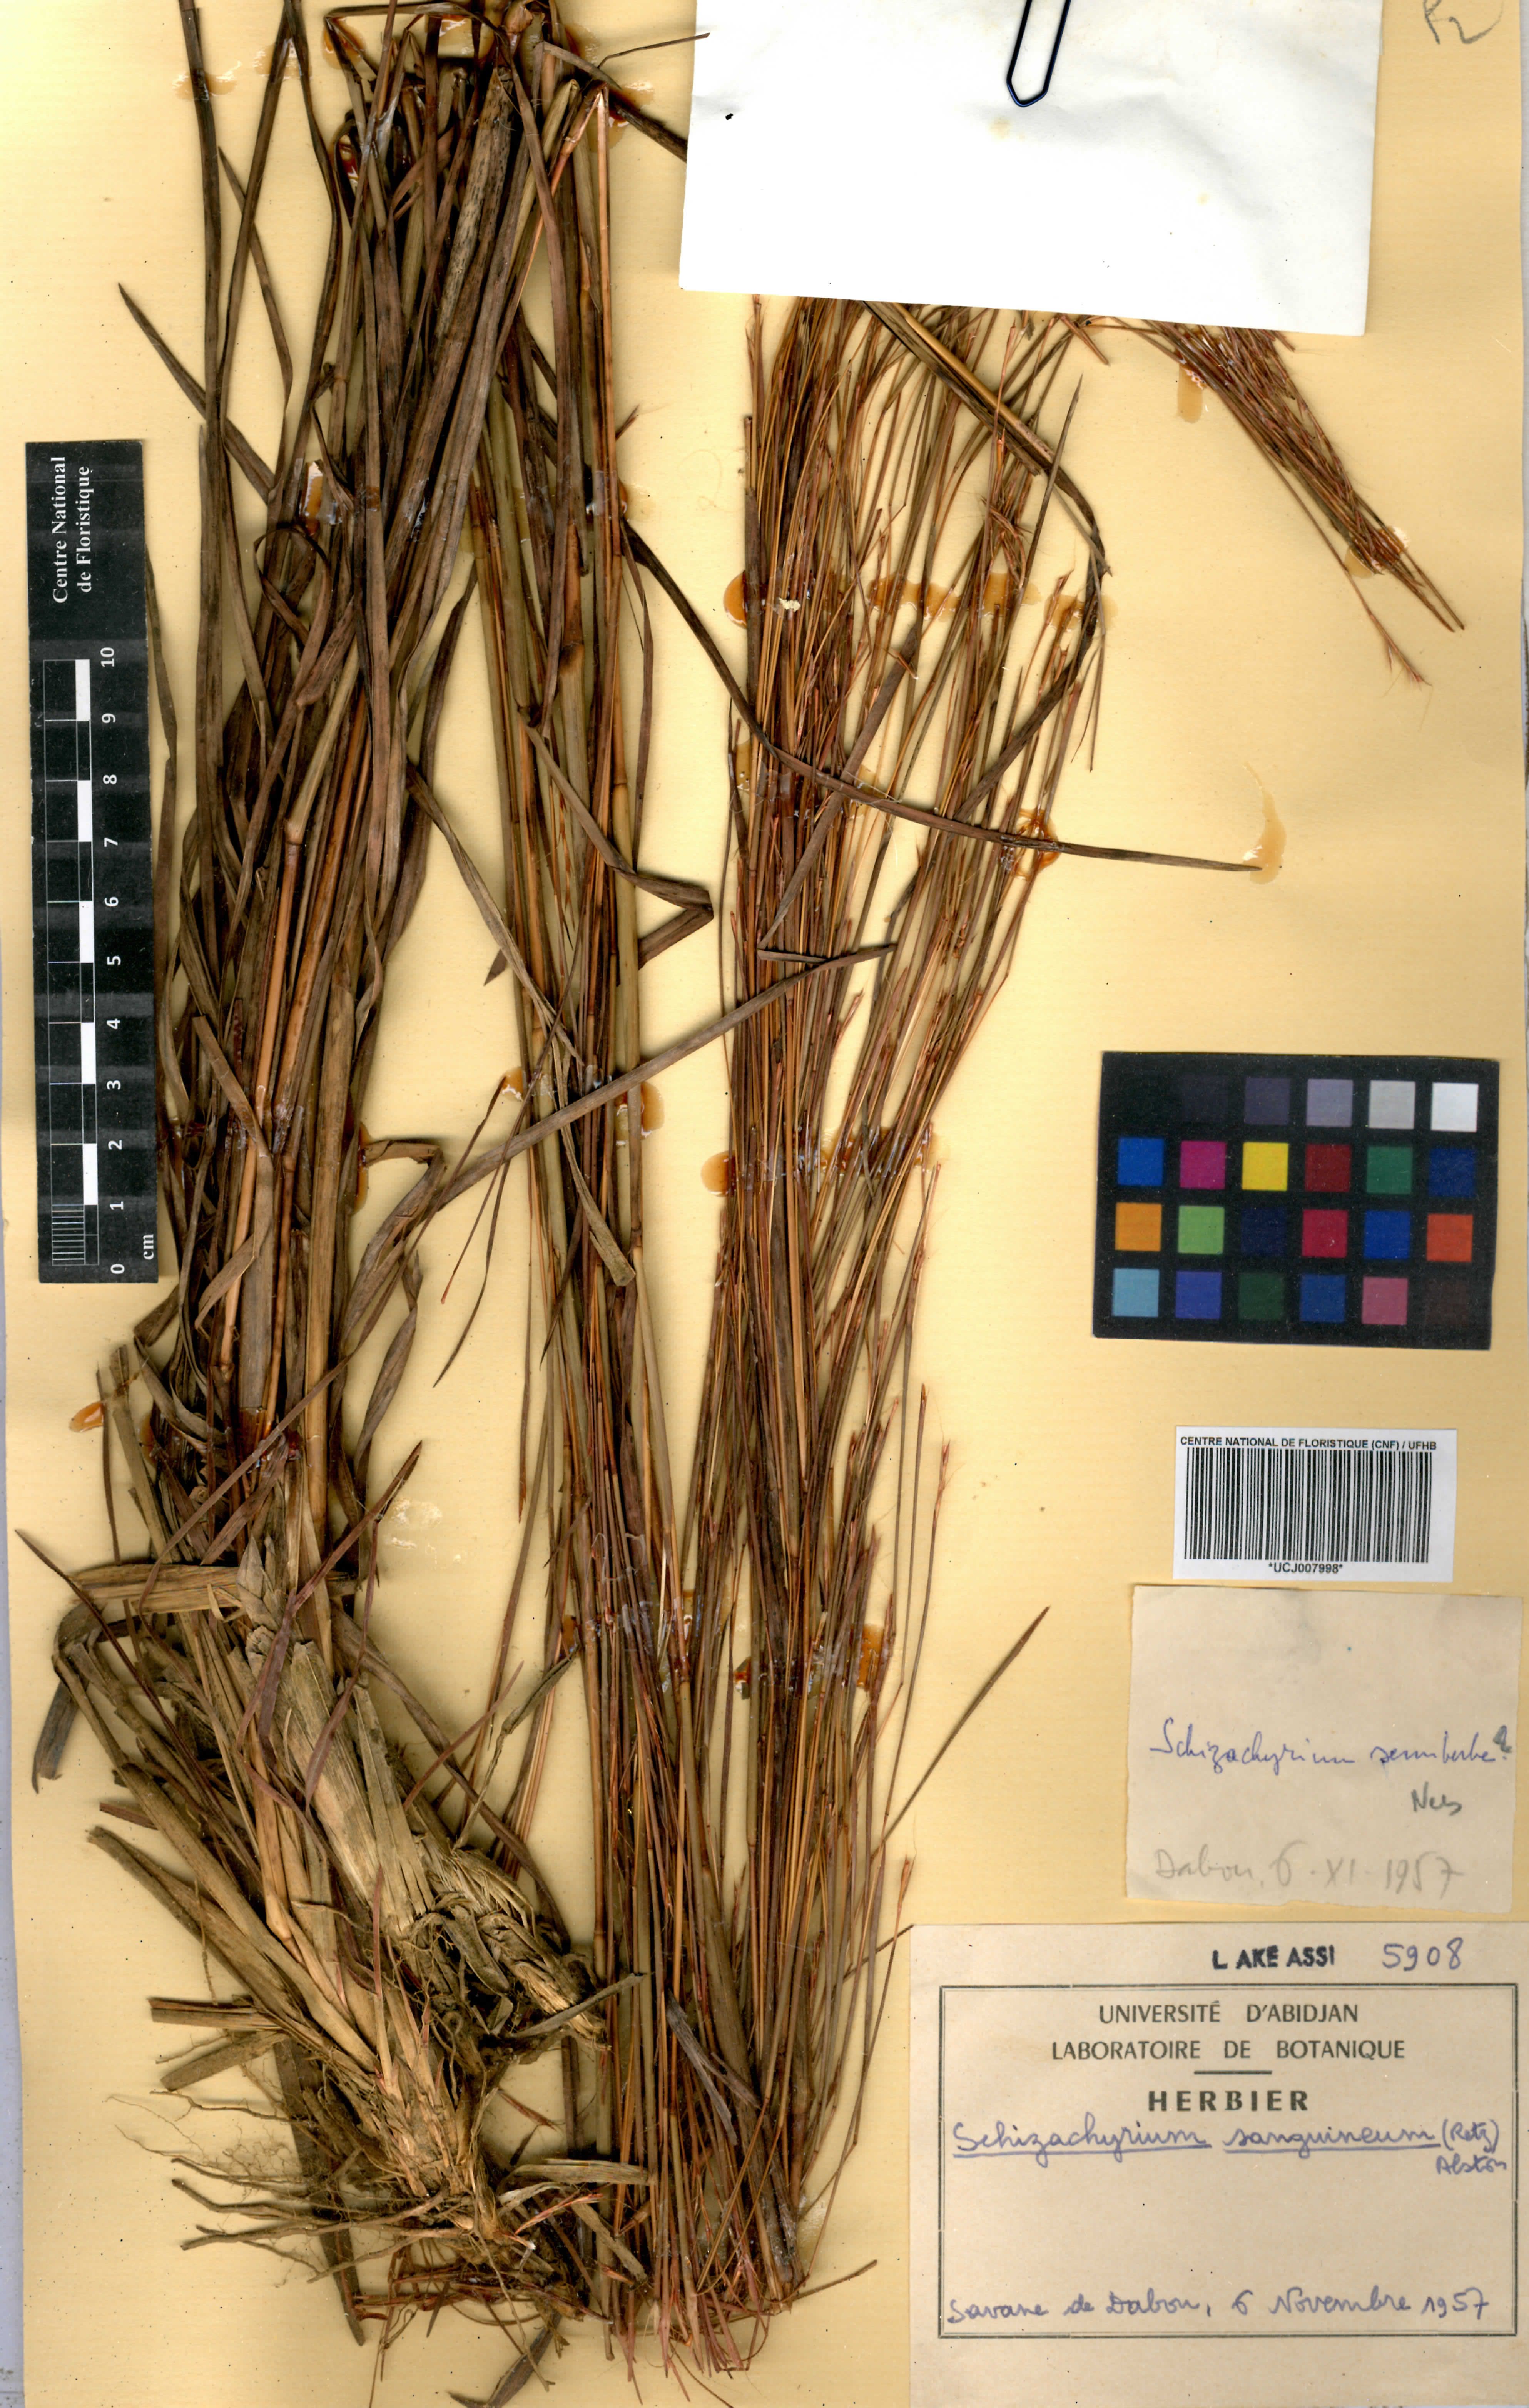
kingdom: Plantae
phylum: Tracheophyta
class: Liliopsida
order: Poales
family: Poaceae
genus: Schizachyrium
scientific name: Schizachyrium sanguineum
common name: Crimson bluestem
